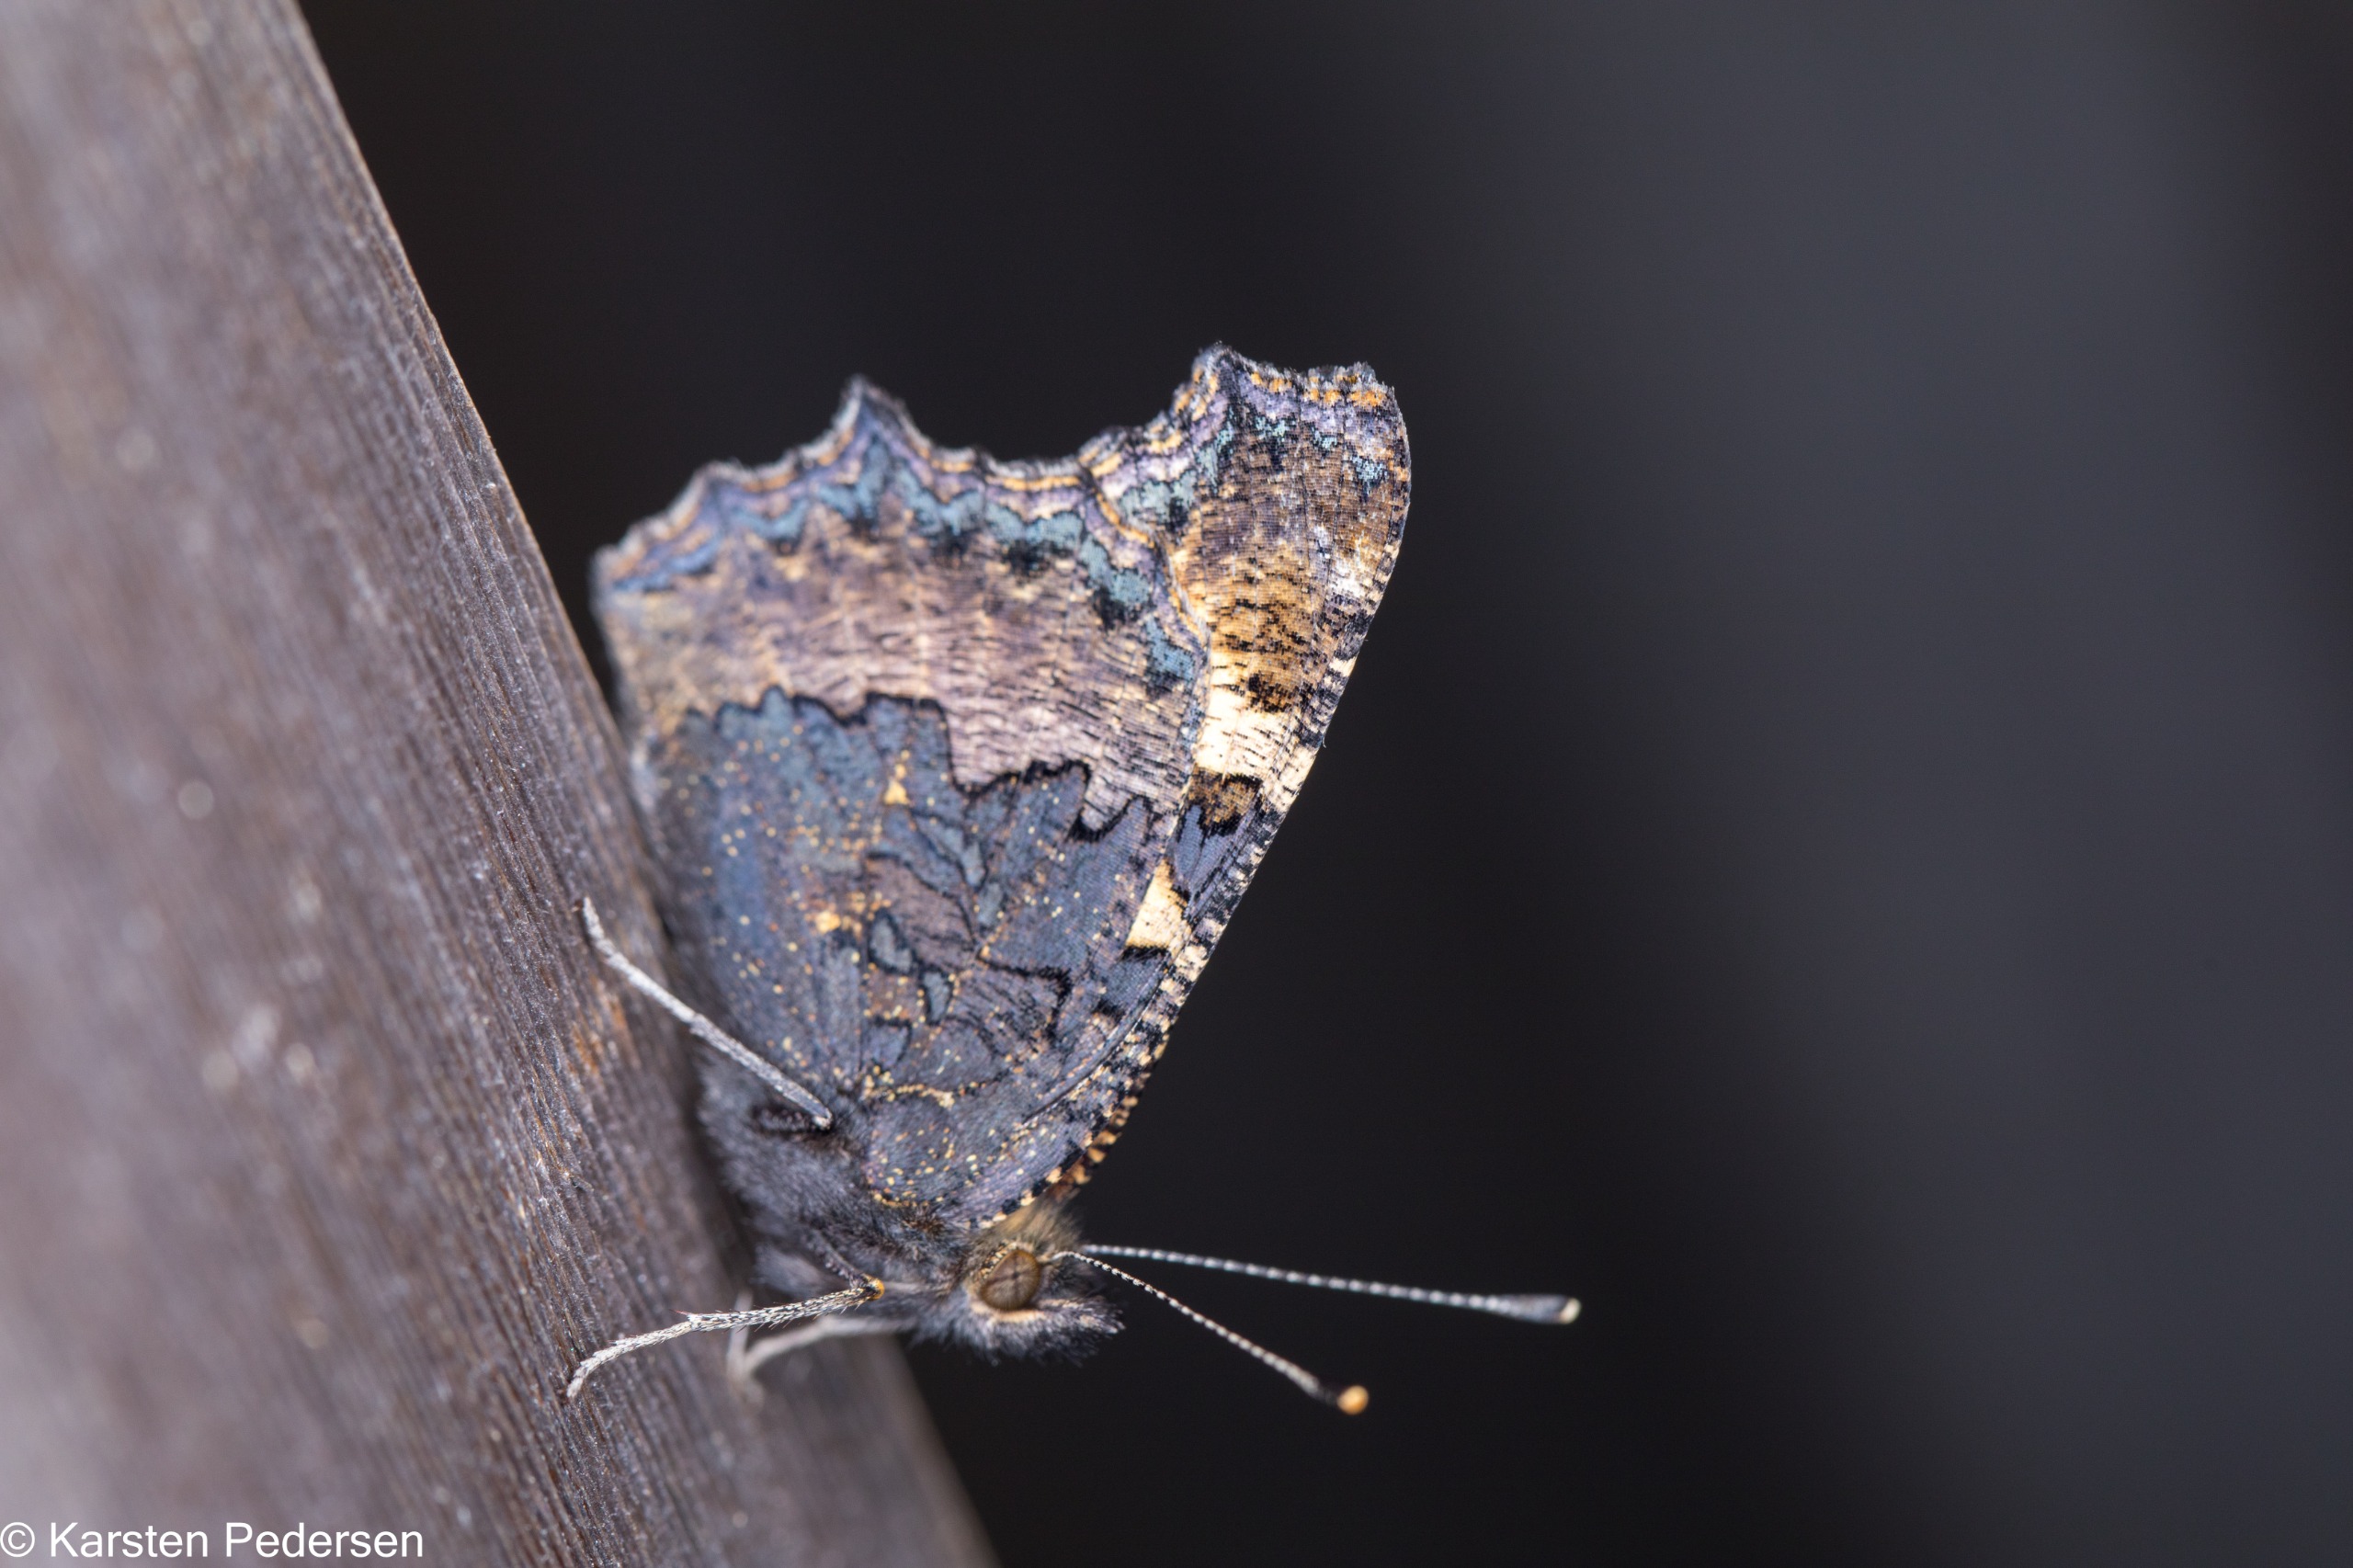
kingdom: Animalia
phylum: Arthropoda
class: Insecta
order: Lepidoptera
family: Nymphalidae
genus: Aglais
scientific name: Aglais urticae
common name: Nældens takvinge
